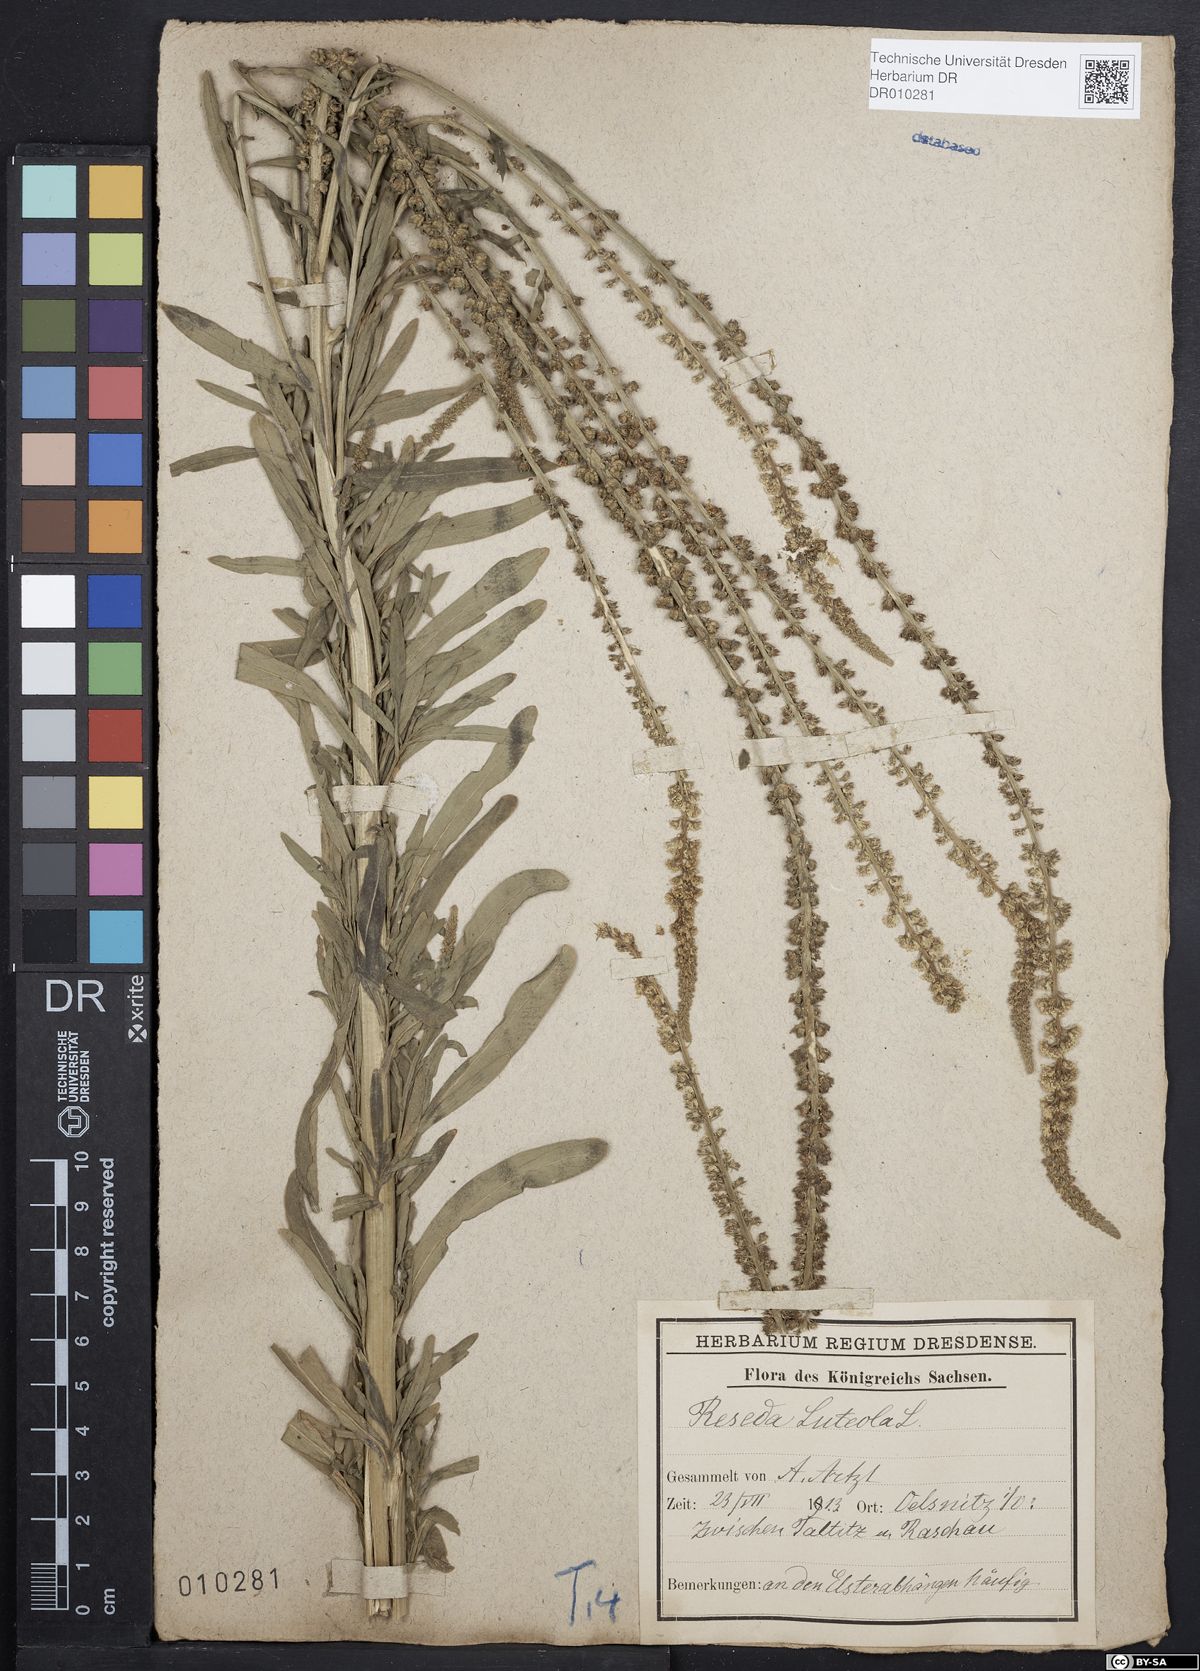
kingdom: Plantae
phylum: Tracheophyta
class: Magnoliopsida
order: Brassicales
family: Resedaceae
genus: Reseda
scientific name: Reseda luteola
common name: Weld
